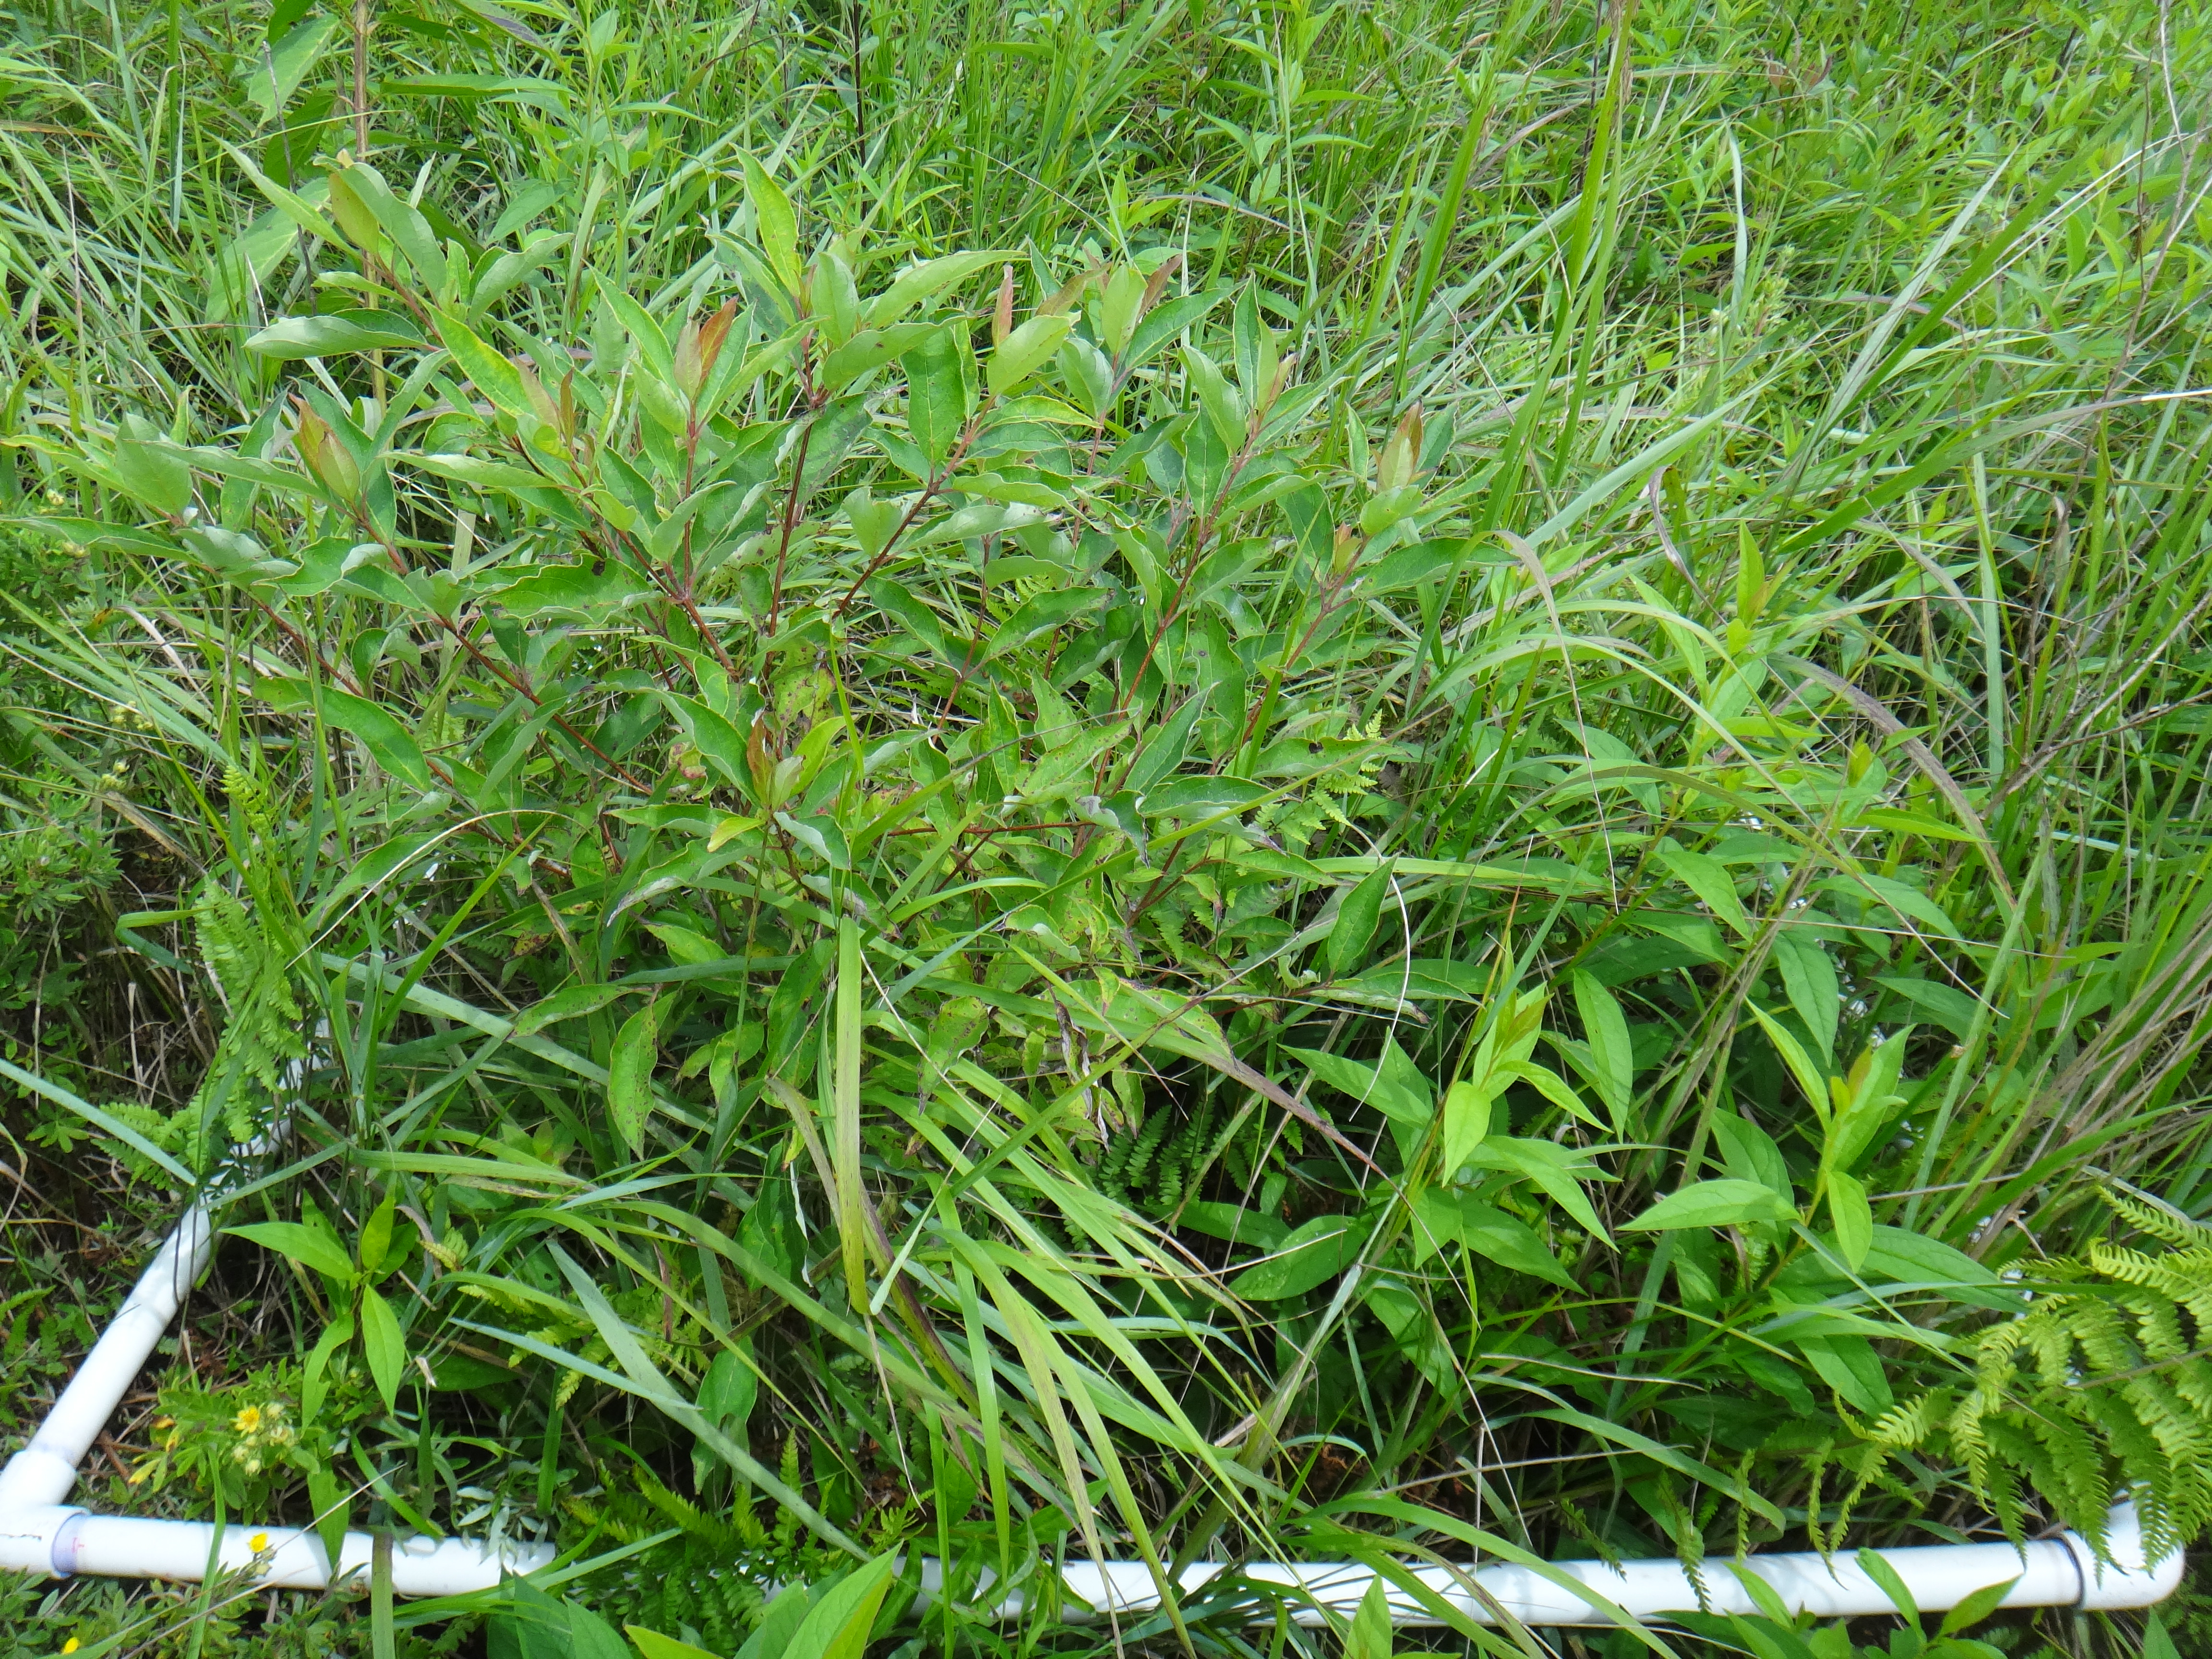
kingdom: Plantae
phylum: Tracheophyta
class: Liliopsida
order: Poales
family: Cyperaceae
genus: Schoenoplectus
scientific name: Schoenoplectus pungens
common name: Sharp club-rush
